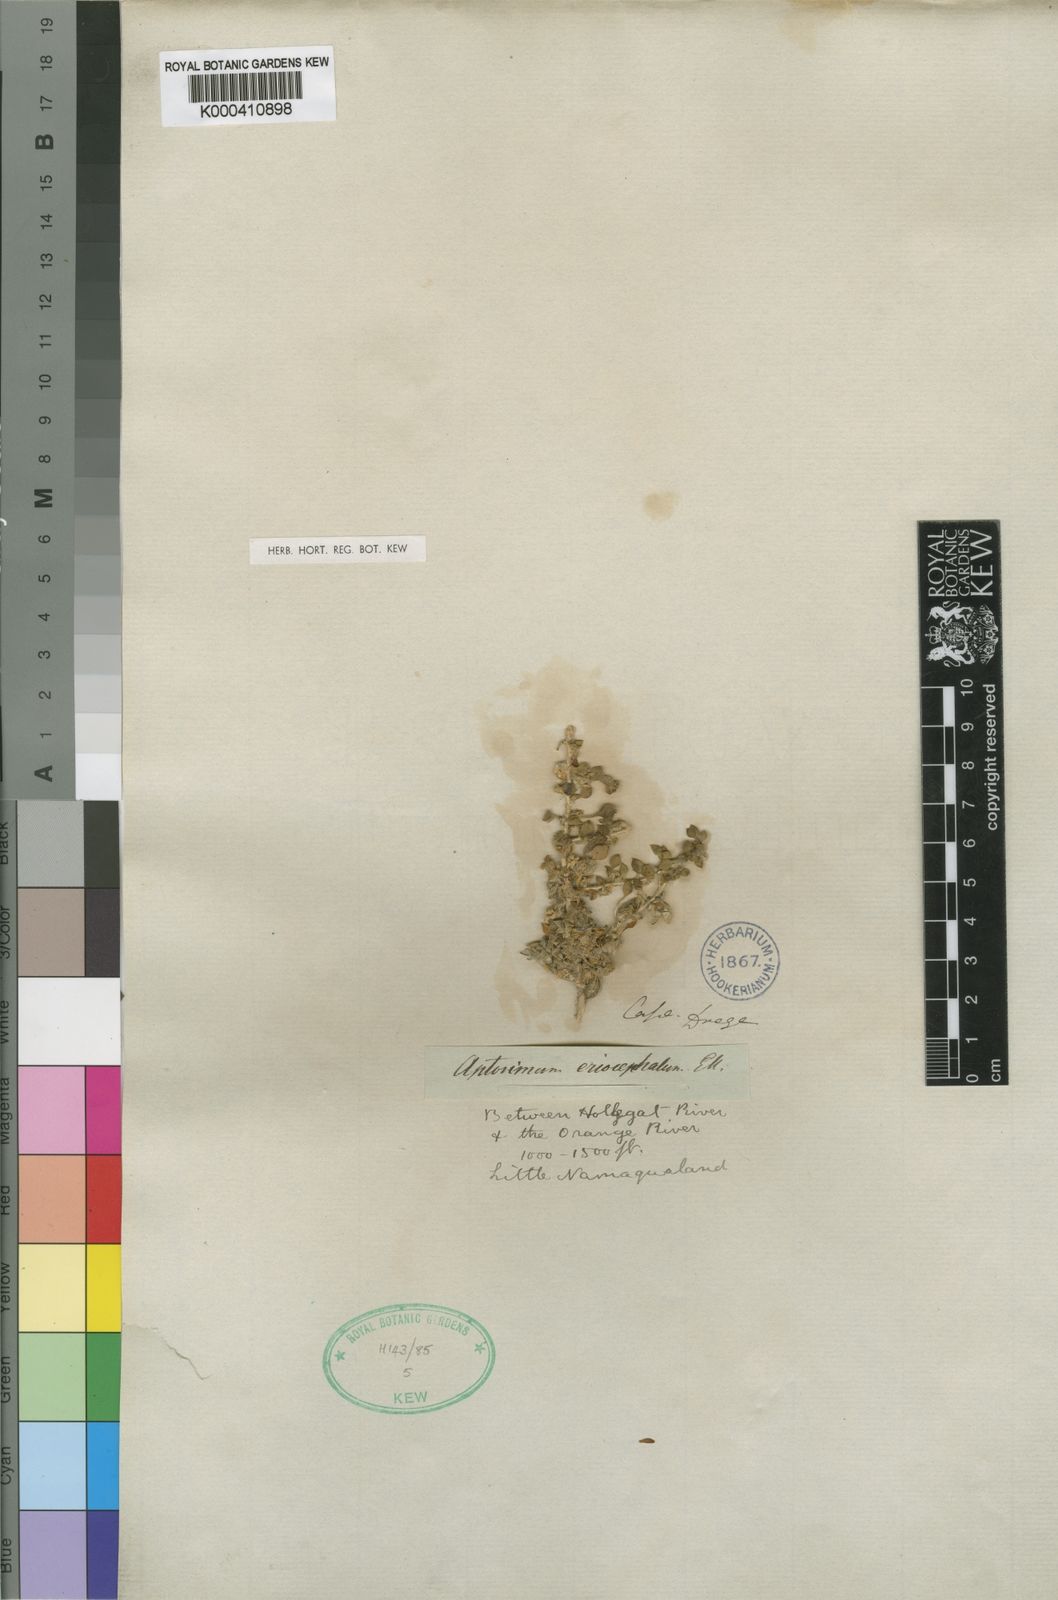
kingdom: Plantae
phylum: Tracheophyta
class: Magnoliopsida
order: Lamiales
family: Scrophulariaceae
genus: Aptosimum
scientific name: Aptosimum procumbens
